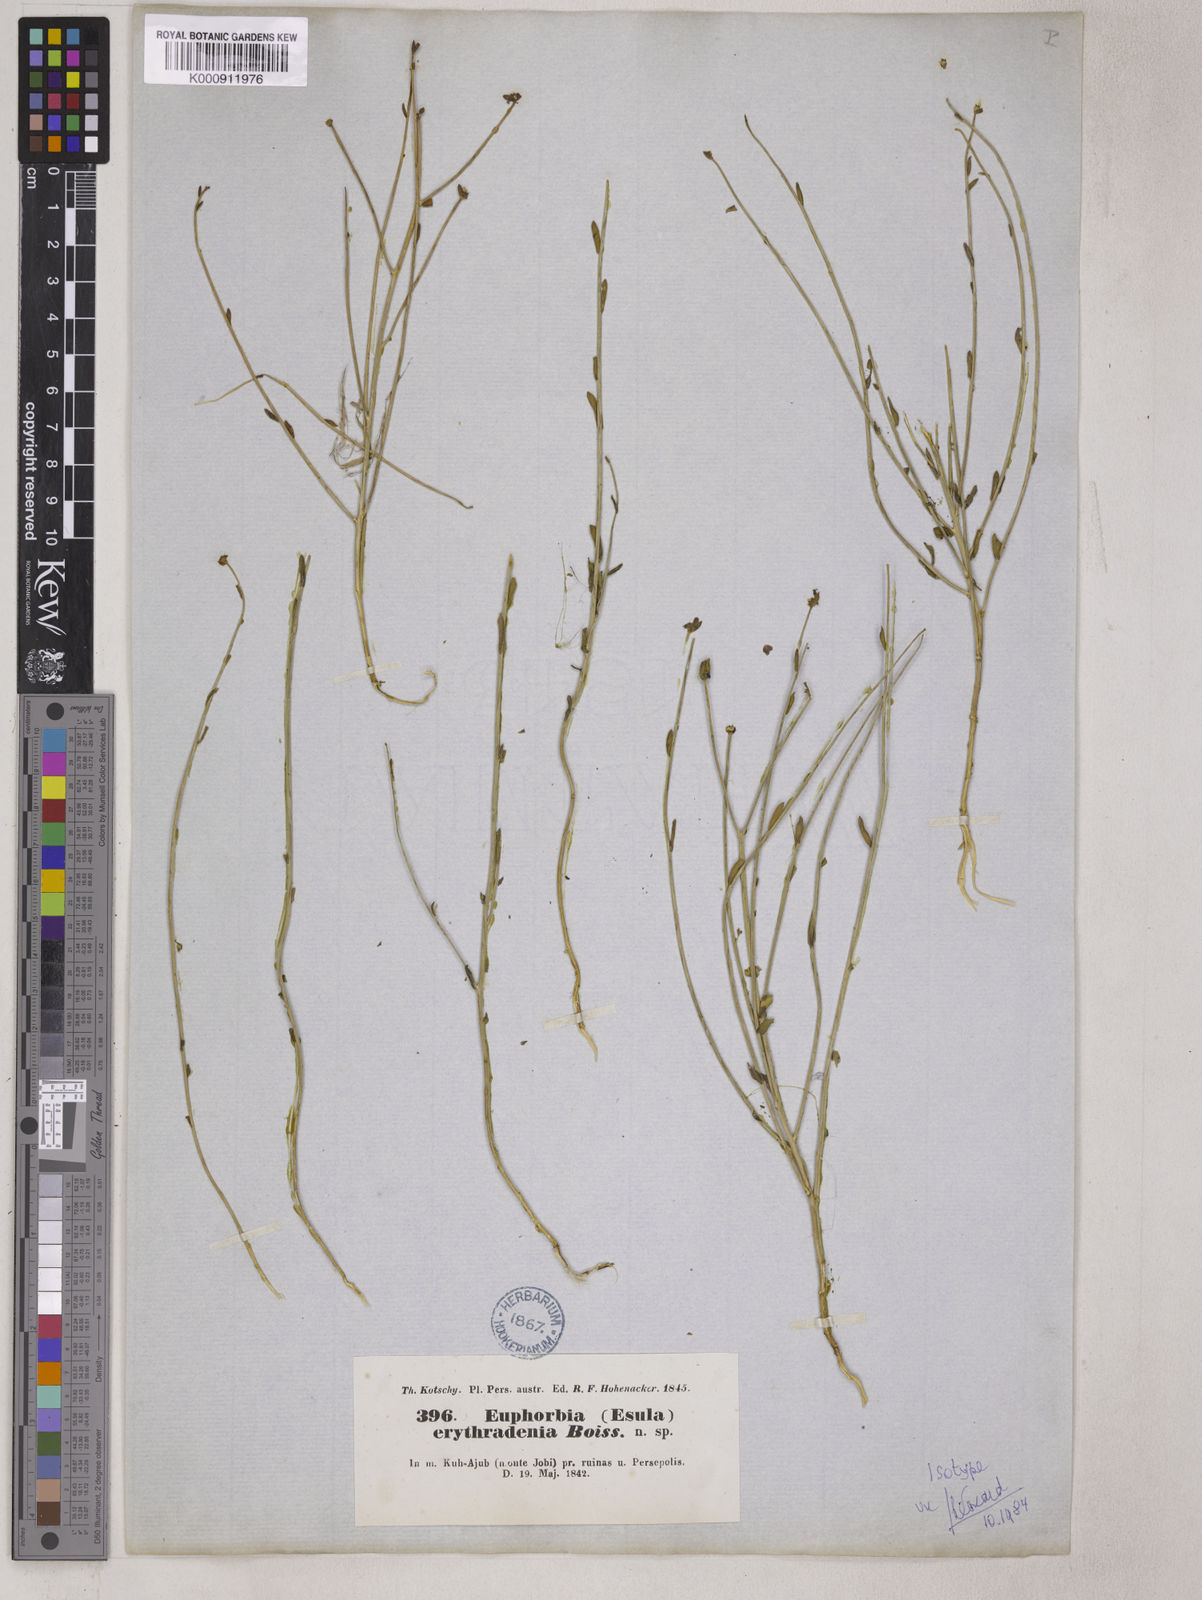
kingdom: Plantae
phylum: Tracheophyta
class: Magnoliopsida
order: Malpighiales
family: Euphorbiaceae
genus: Euphorbia
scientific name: Euphorbia erythradenia
